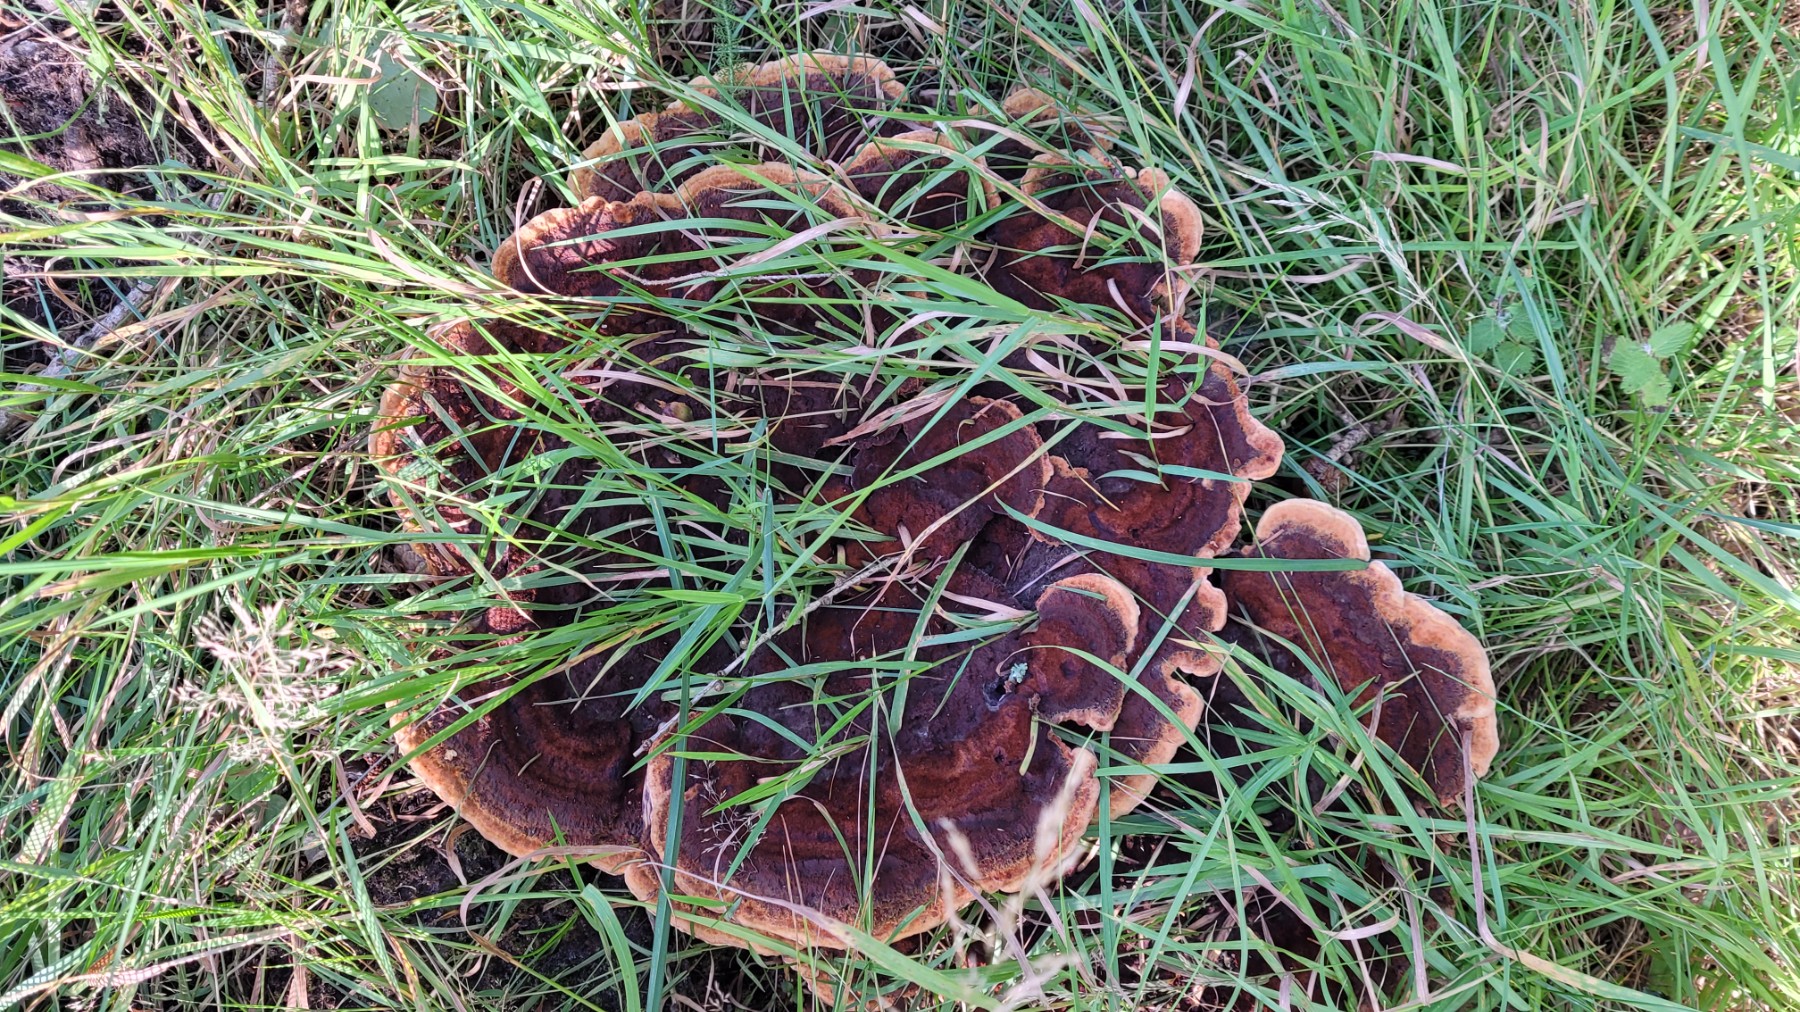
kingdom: Fungi
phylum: Basidiomycota
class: Agaricomycetes
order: Polyporales
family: Laetiporaceae
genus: Phaeolus
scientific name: Phaeolus schweinitzii
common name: brunporesvamp
